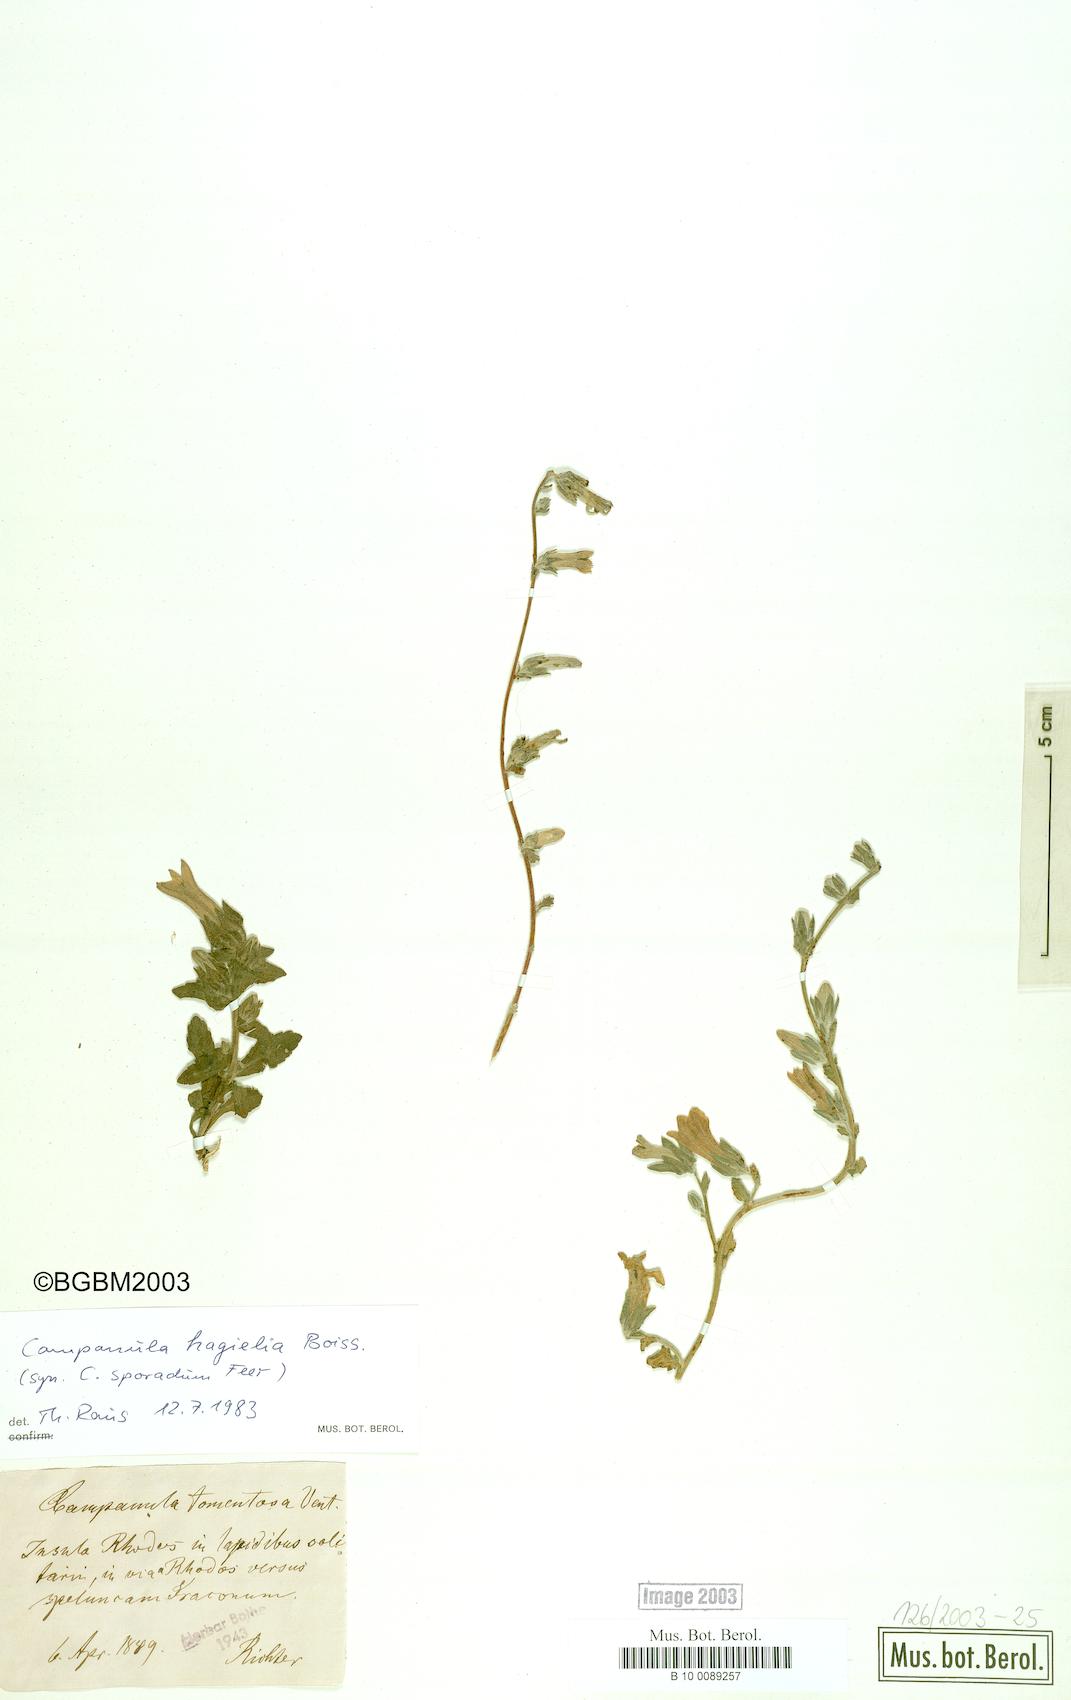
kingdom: Plantae
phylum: Tracheophyta
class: Magnoliopsida
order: Asterales
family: Campanulaceae
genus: Campanula
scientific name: Campanula hagielia
